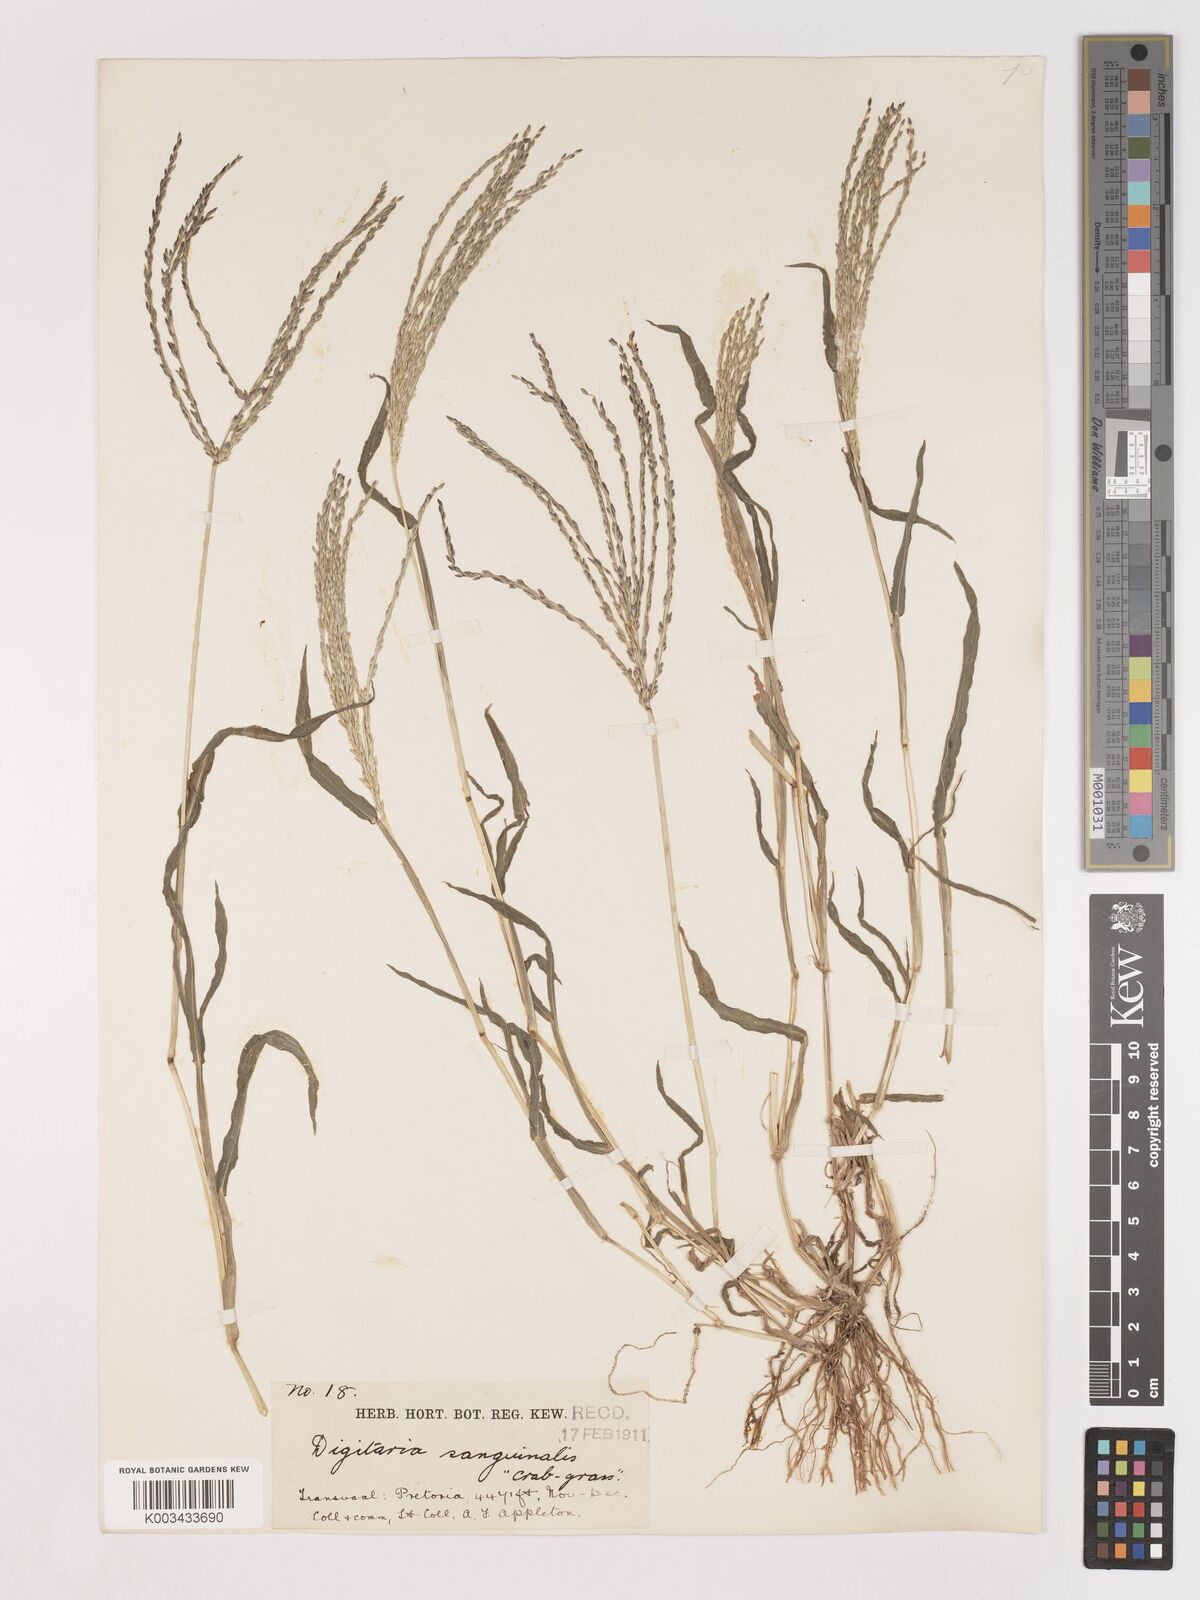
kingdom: Plantae
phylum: Tracheophyta
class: Liliopsida
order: Poales
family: Poaceae
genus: Digitaria
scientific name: Digitaria sanguinalis
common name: Hairy crabgrass
